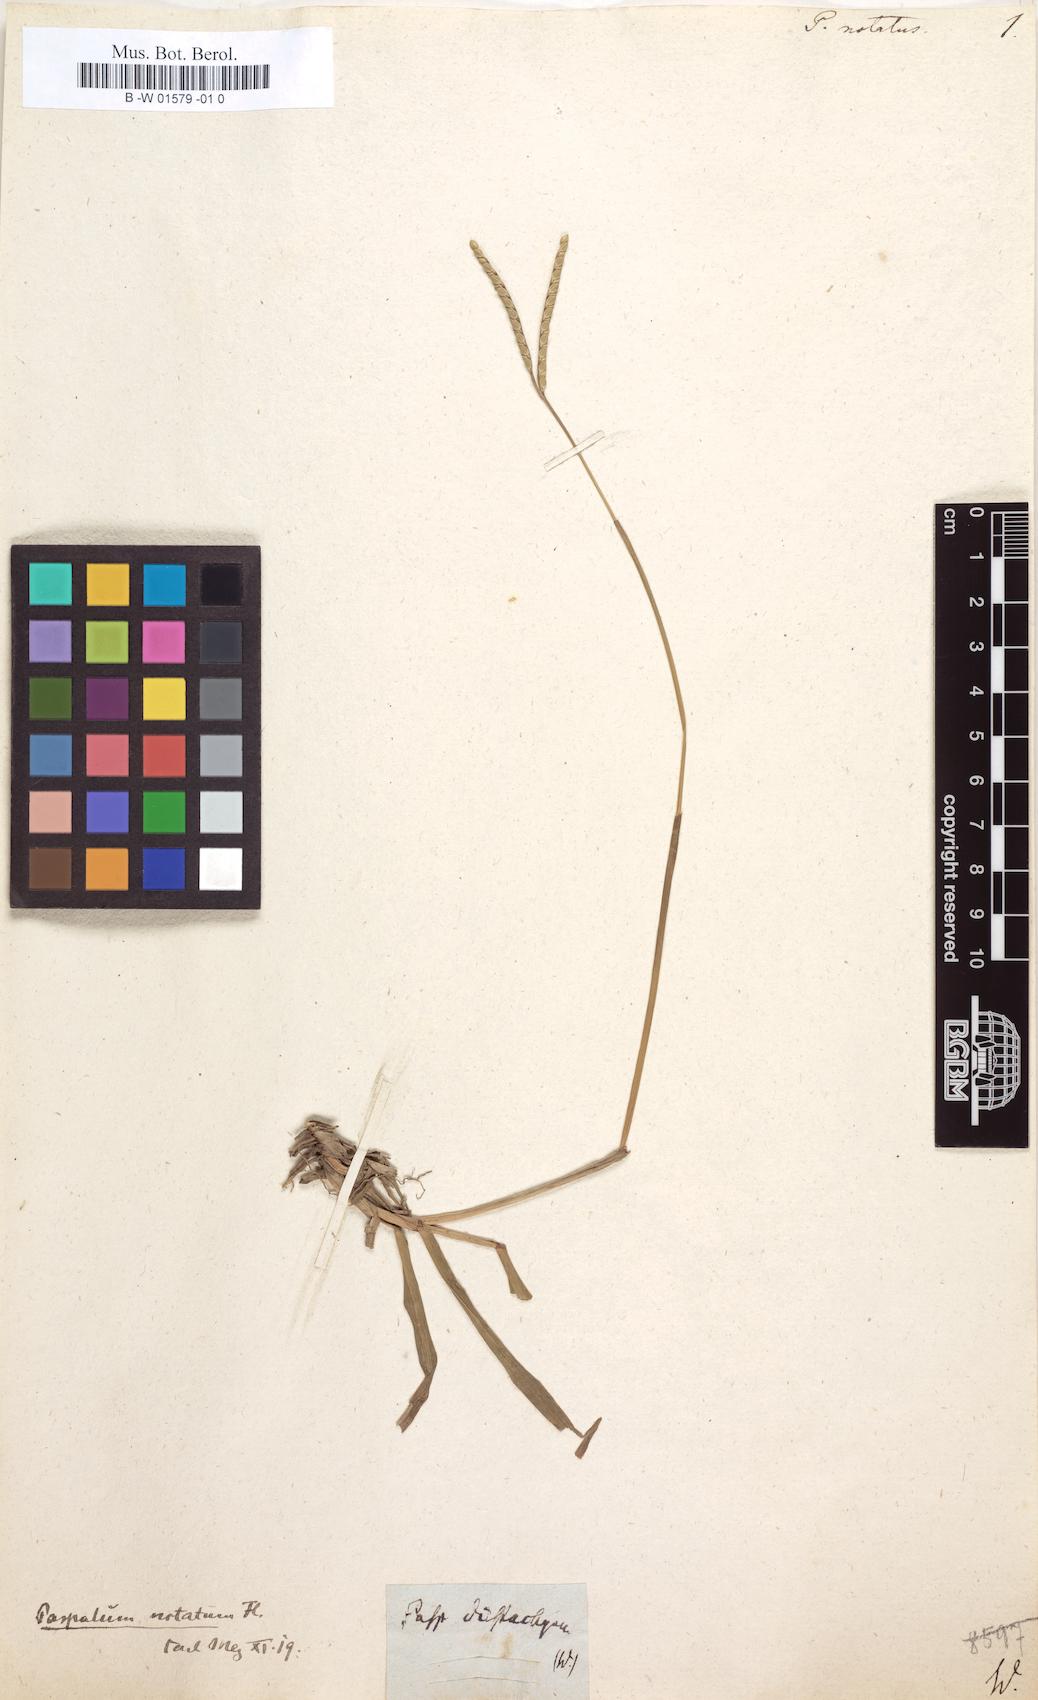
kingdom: Plantae
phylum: Tracheophyta
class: Liliopsida
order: Poales
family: Poaceae
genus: Paspalum
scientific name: Paspalum notatum
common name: Bahiagrass
